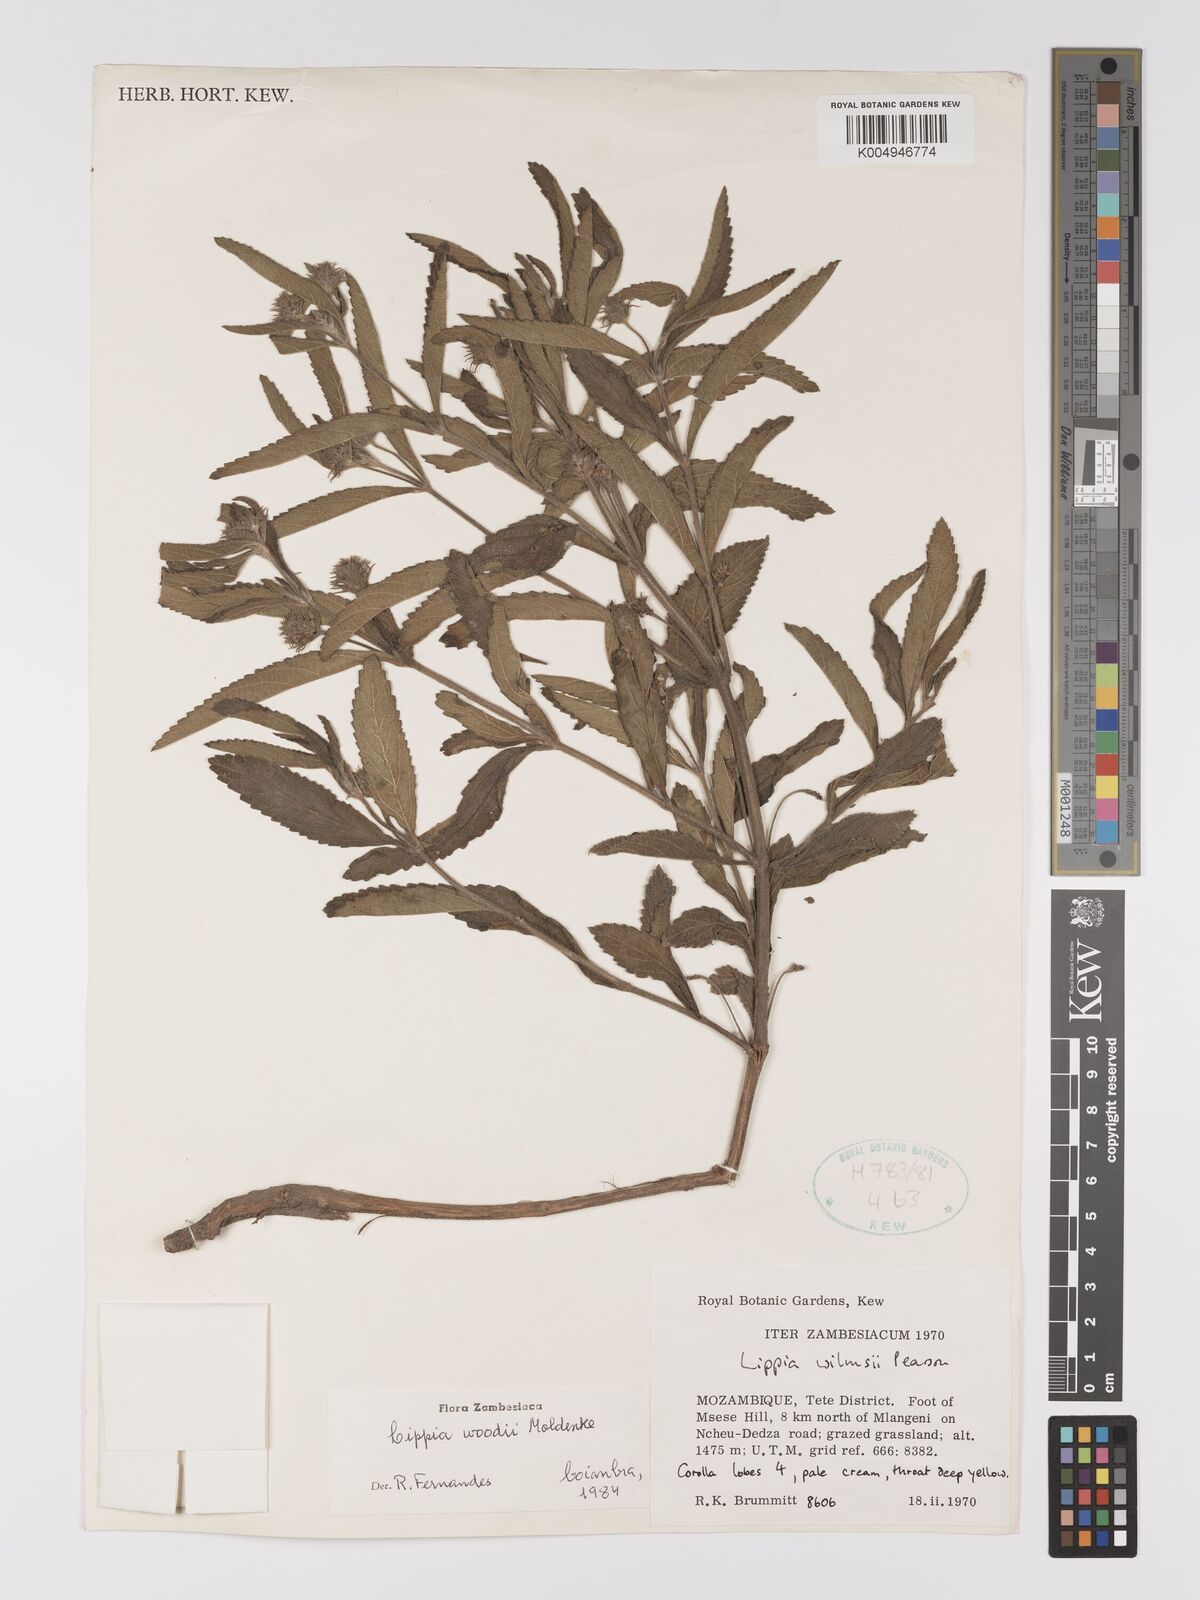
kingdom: Plantae
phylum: Tracheophyta
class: Magnoliopsida
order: Lamiales
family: Verbenaceae
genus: Lippia
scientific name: Lippia woodii
